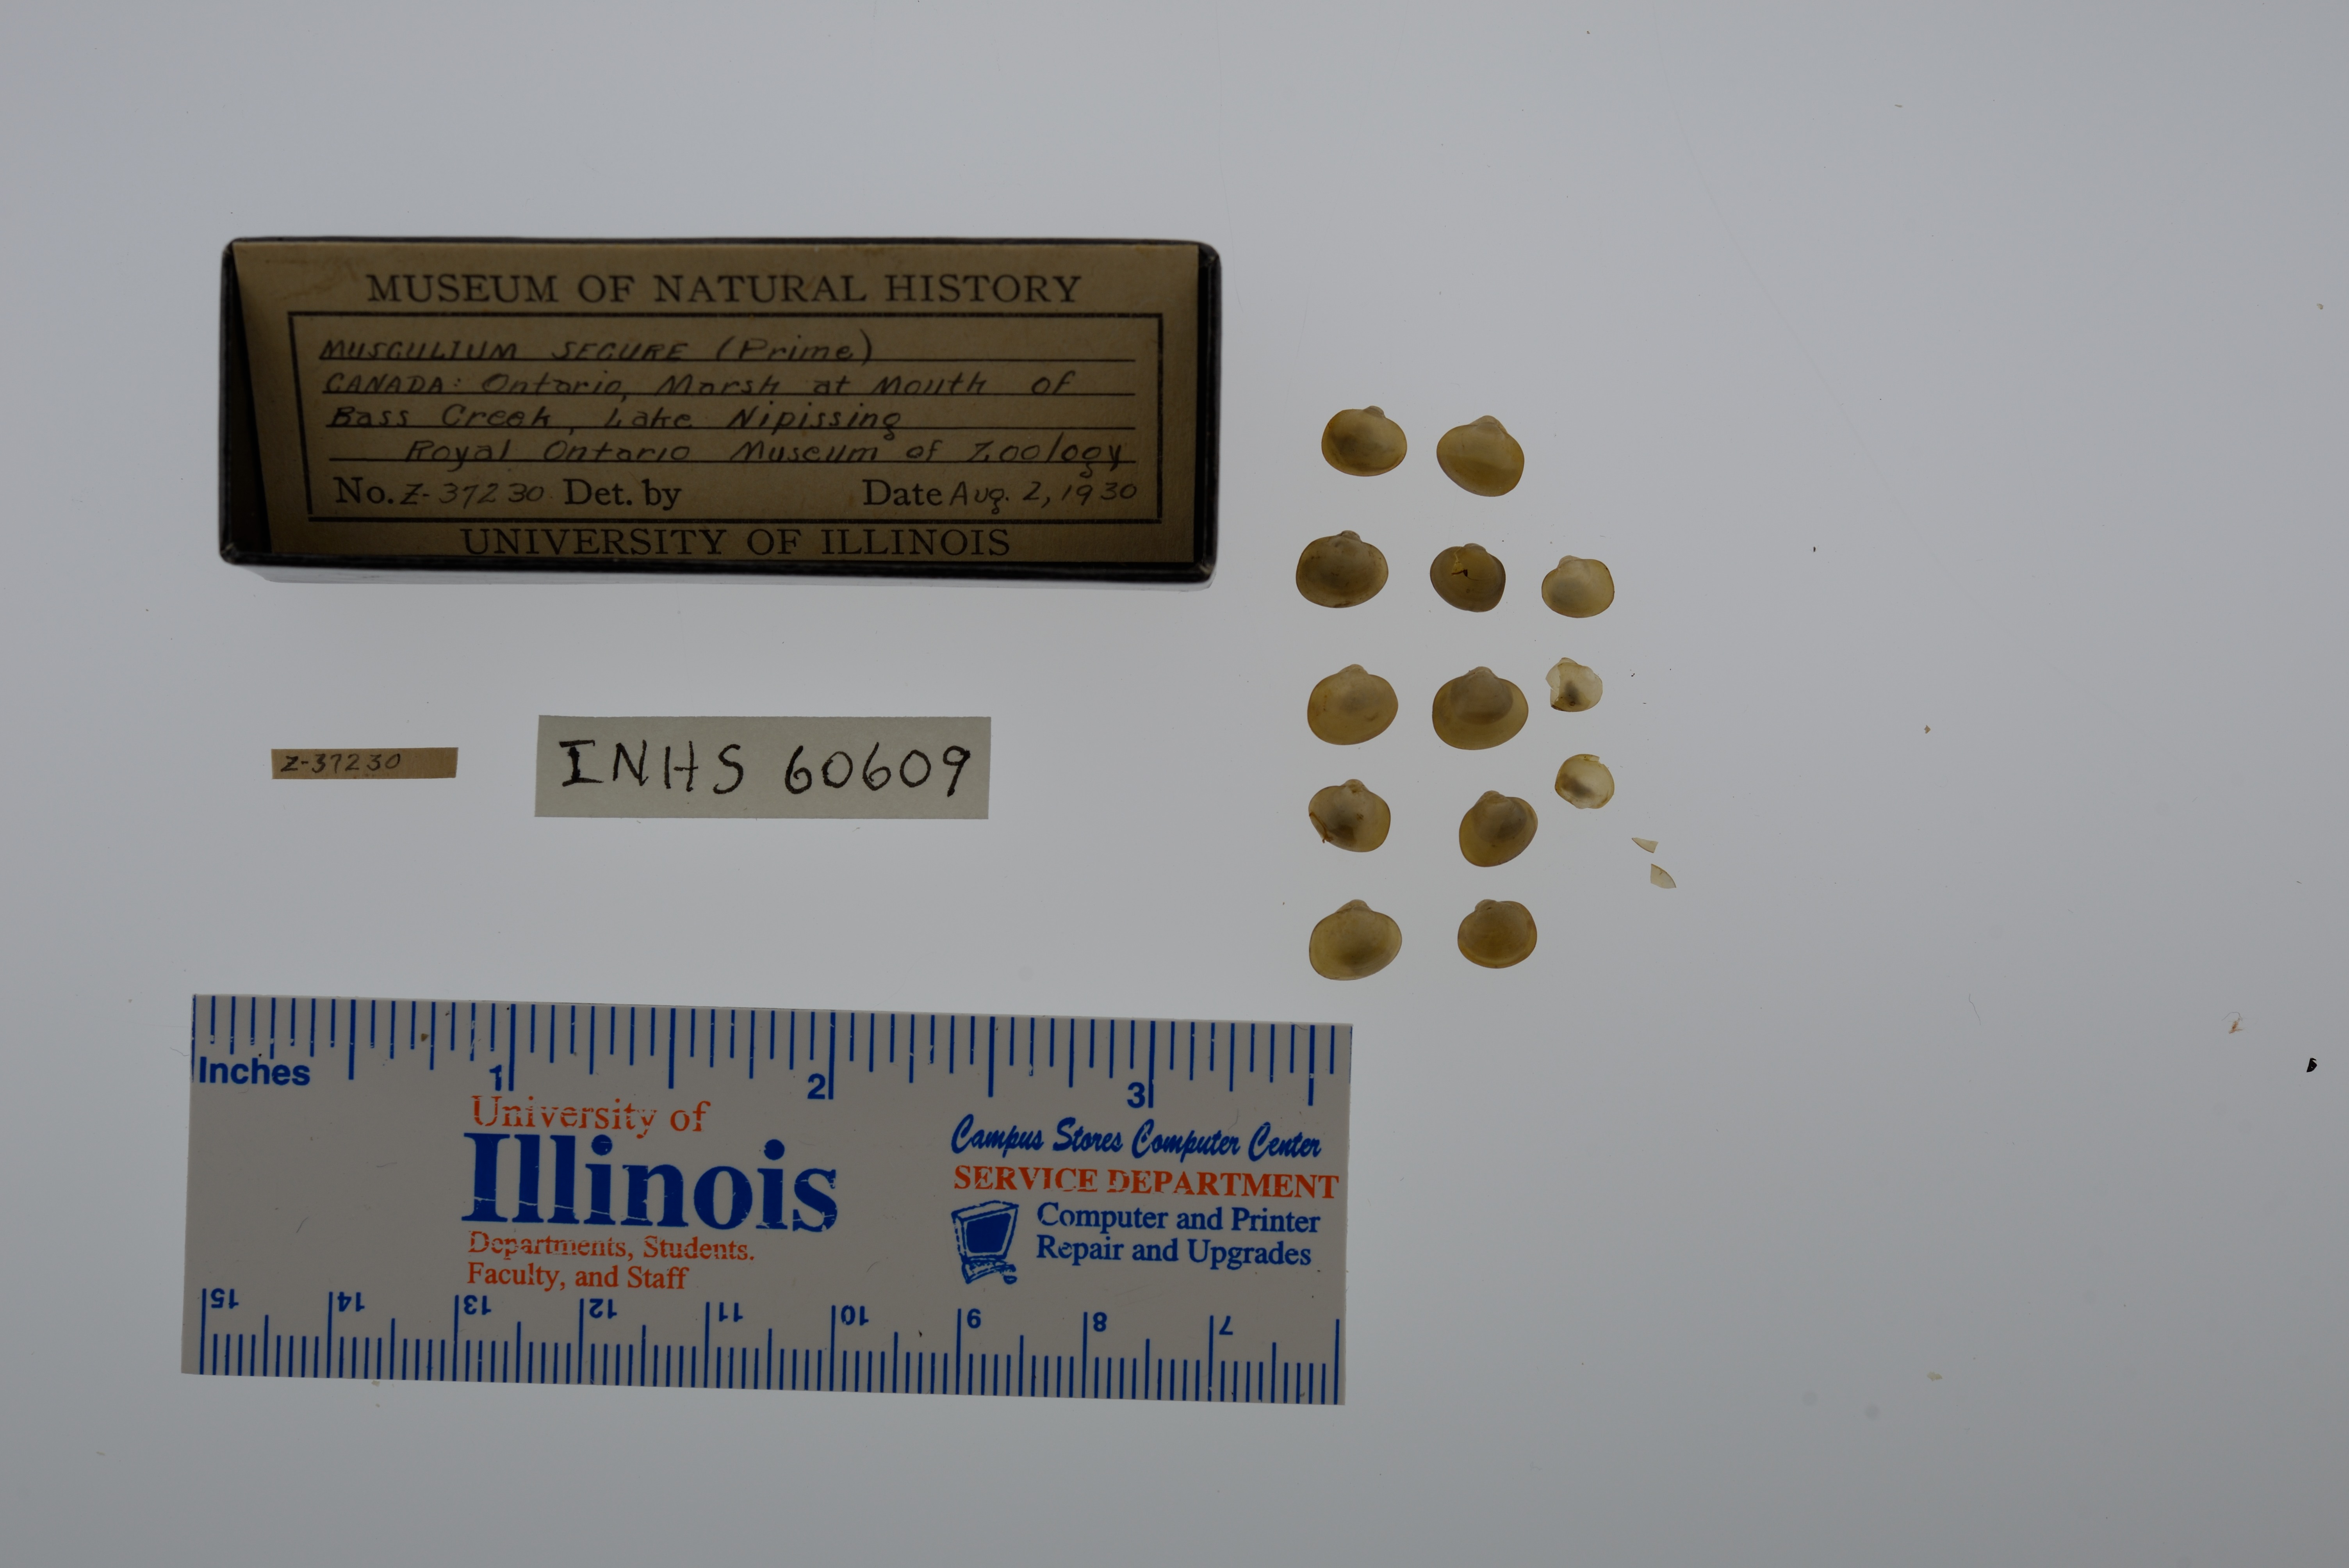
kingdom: Animalia
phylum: Mollusca
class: Bivalvia
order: Sphaeriida
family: Sphaeriidae
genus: Musculium
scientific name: Musculium securis
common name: Pond fingerclam
